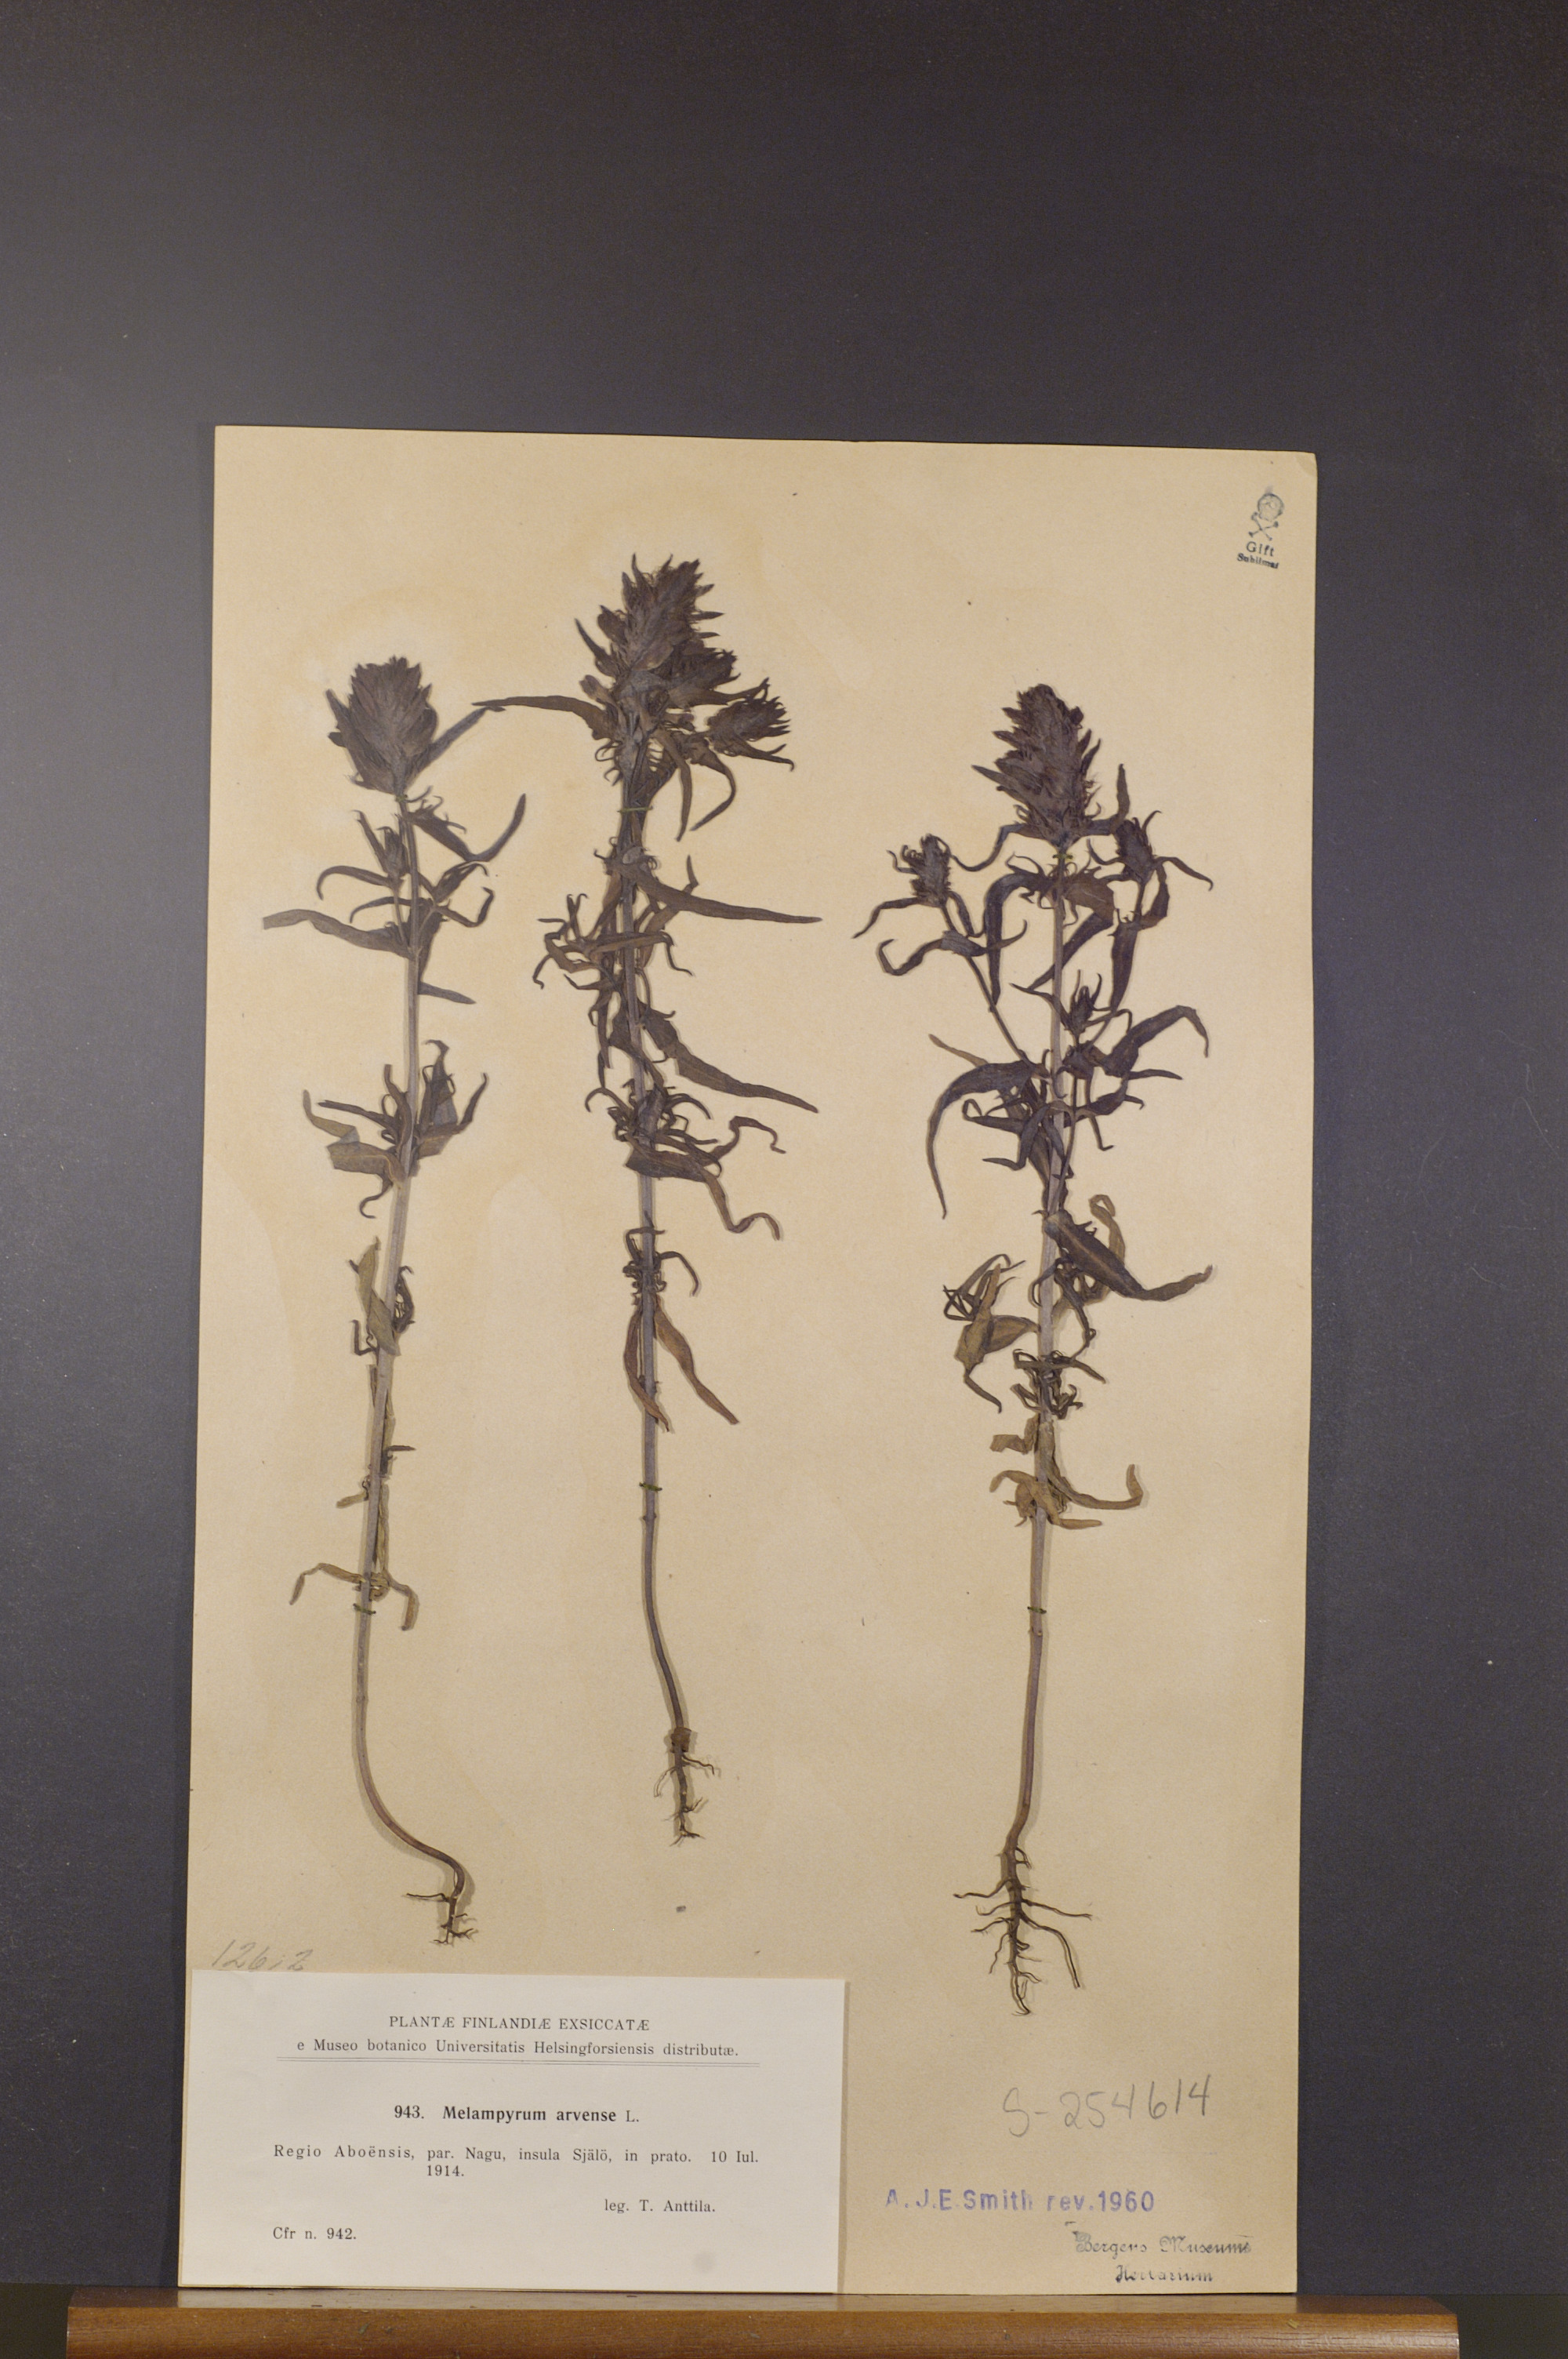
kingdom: Plantae
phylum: Tracheophyta
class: Magnoliopsida
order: Lamiales
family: Orobanchaceae
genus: Melampyrum
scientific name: Melampyrum arvense
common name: Field cow-wheat
